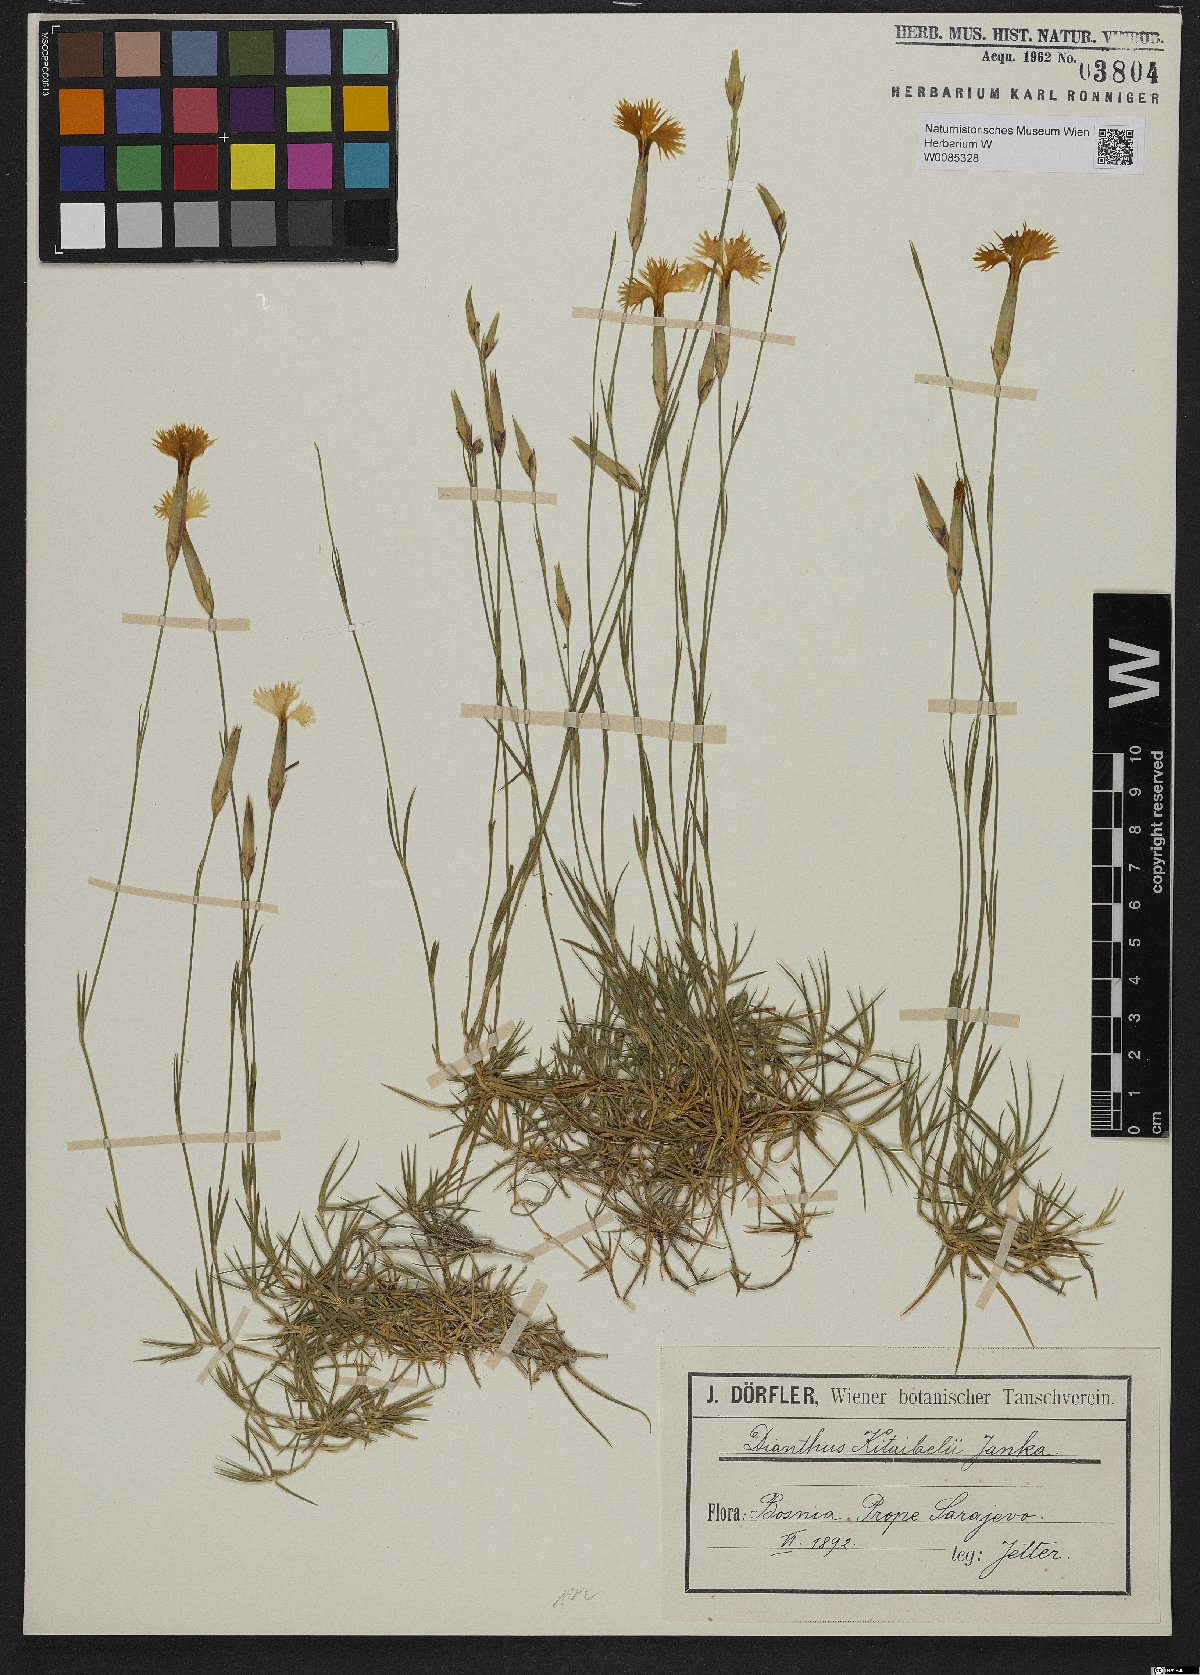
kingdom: Plantae
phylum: Tracheophyta
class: Magnoliopsida
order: Caryophyllales
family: Caryophyllaceae
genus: Dianthus
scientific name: Dianthus petraeus
